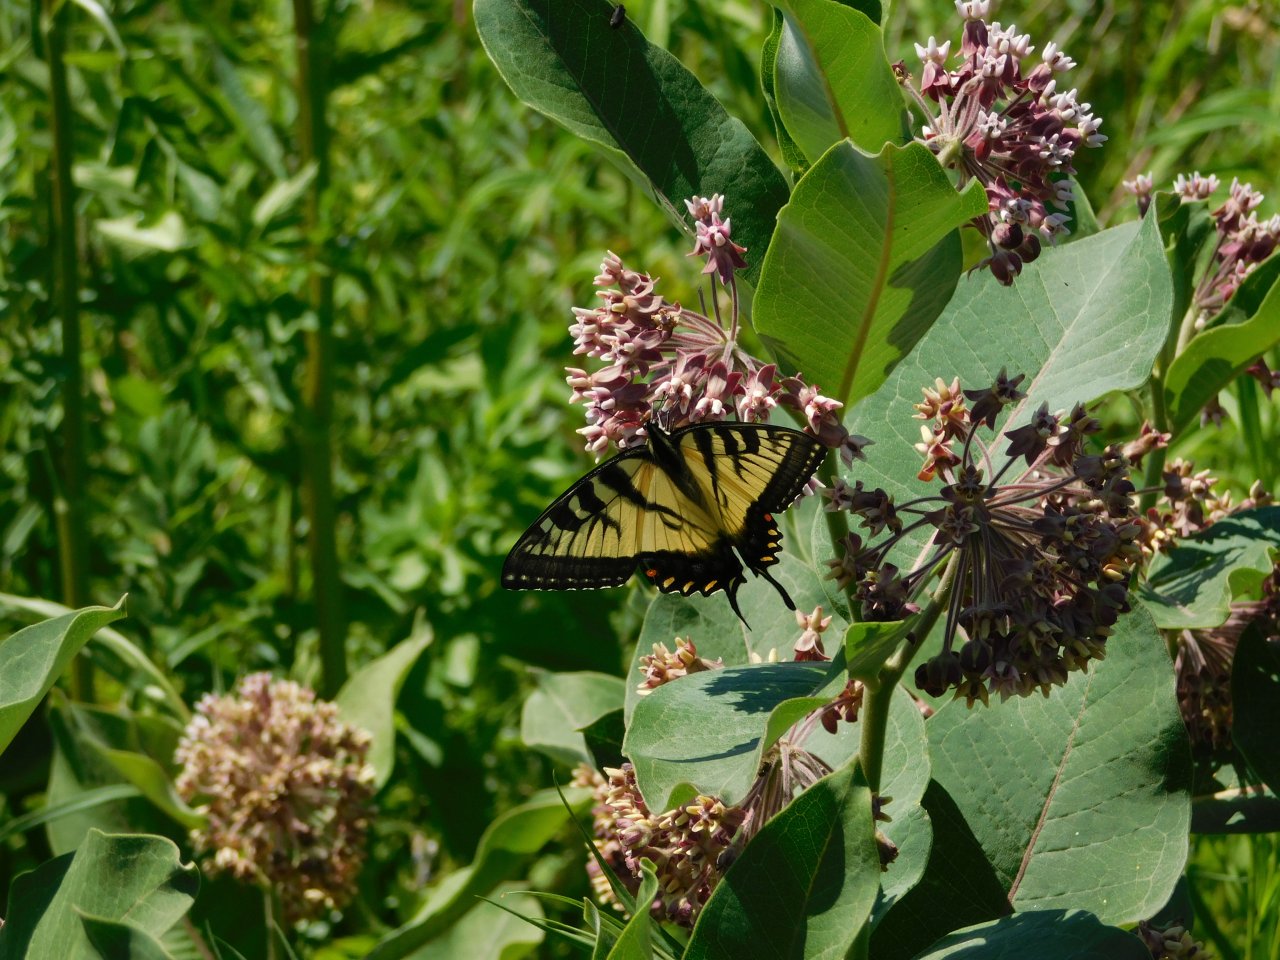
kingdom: Animalia
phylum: Arthropoda
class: Insecta
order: Lepidoptera
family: Papilionidae
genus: Pterourus
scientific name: Pterourus glaucus
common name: Eastern Tiger Swallowtail
